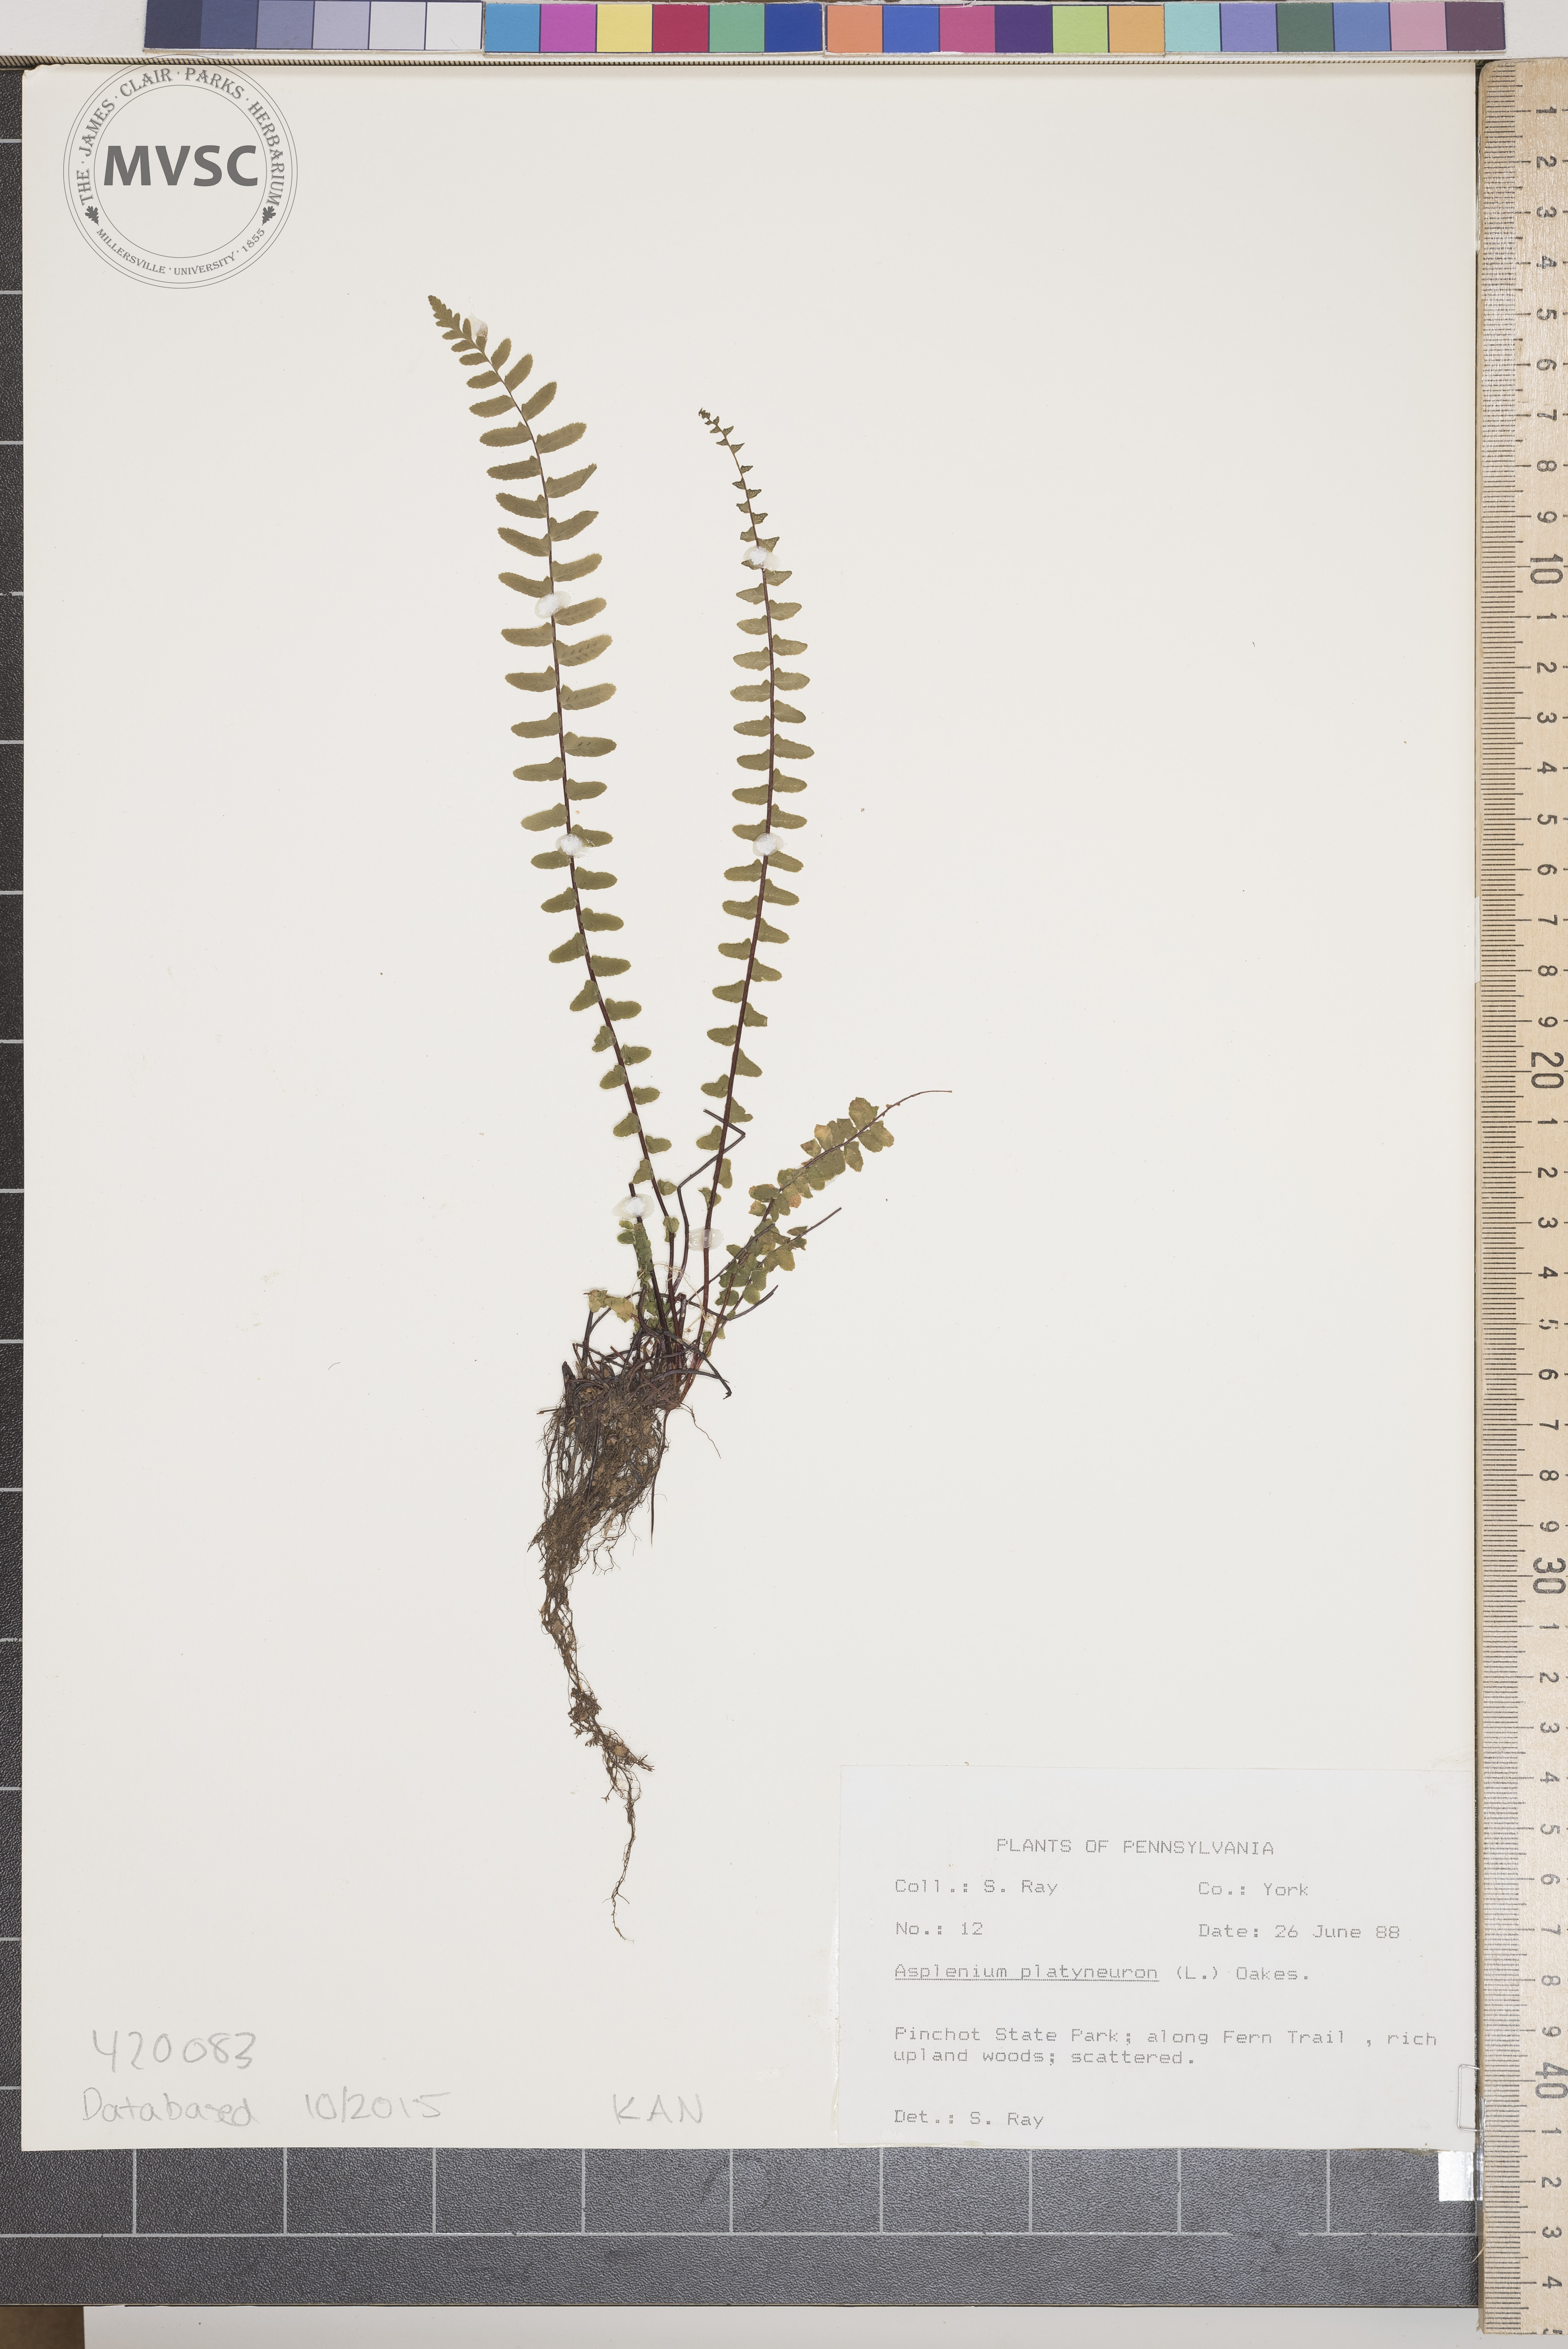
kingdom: Plantae
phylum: Tracheophyta
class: Polypodiopsida
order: Polypodiales
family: Aspleniaceae
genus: Asplenium
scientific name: Asplenium platyneuron
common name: Ebony Spleenwort
